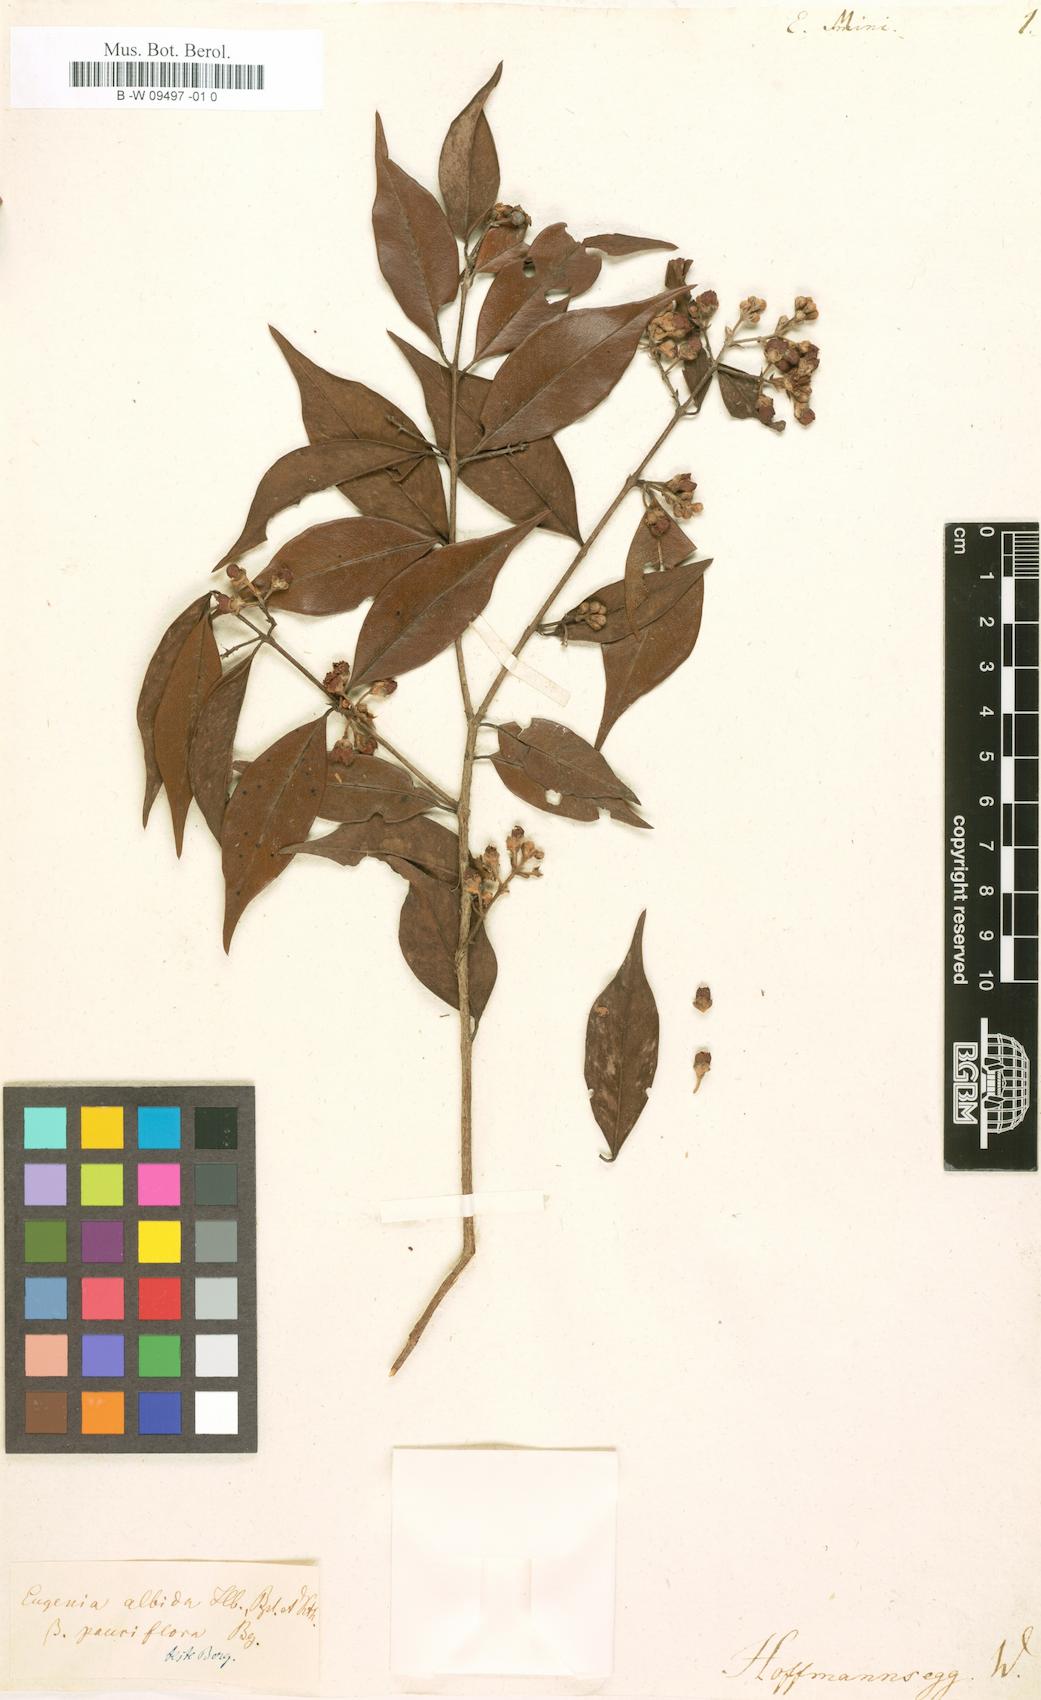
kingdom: Plantae
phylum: Tracheophyta
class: Magnoliopsida
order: Myrtales
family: Myrtaceae
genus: Eugenia
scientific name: Eugenia mini
